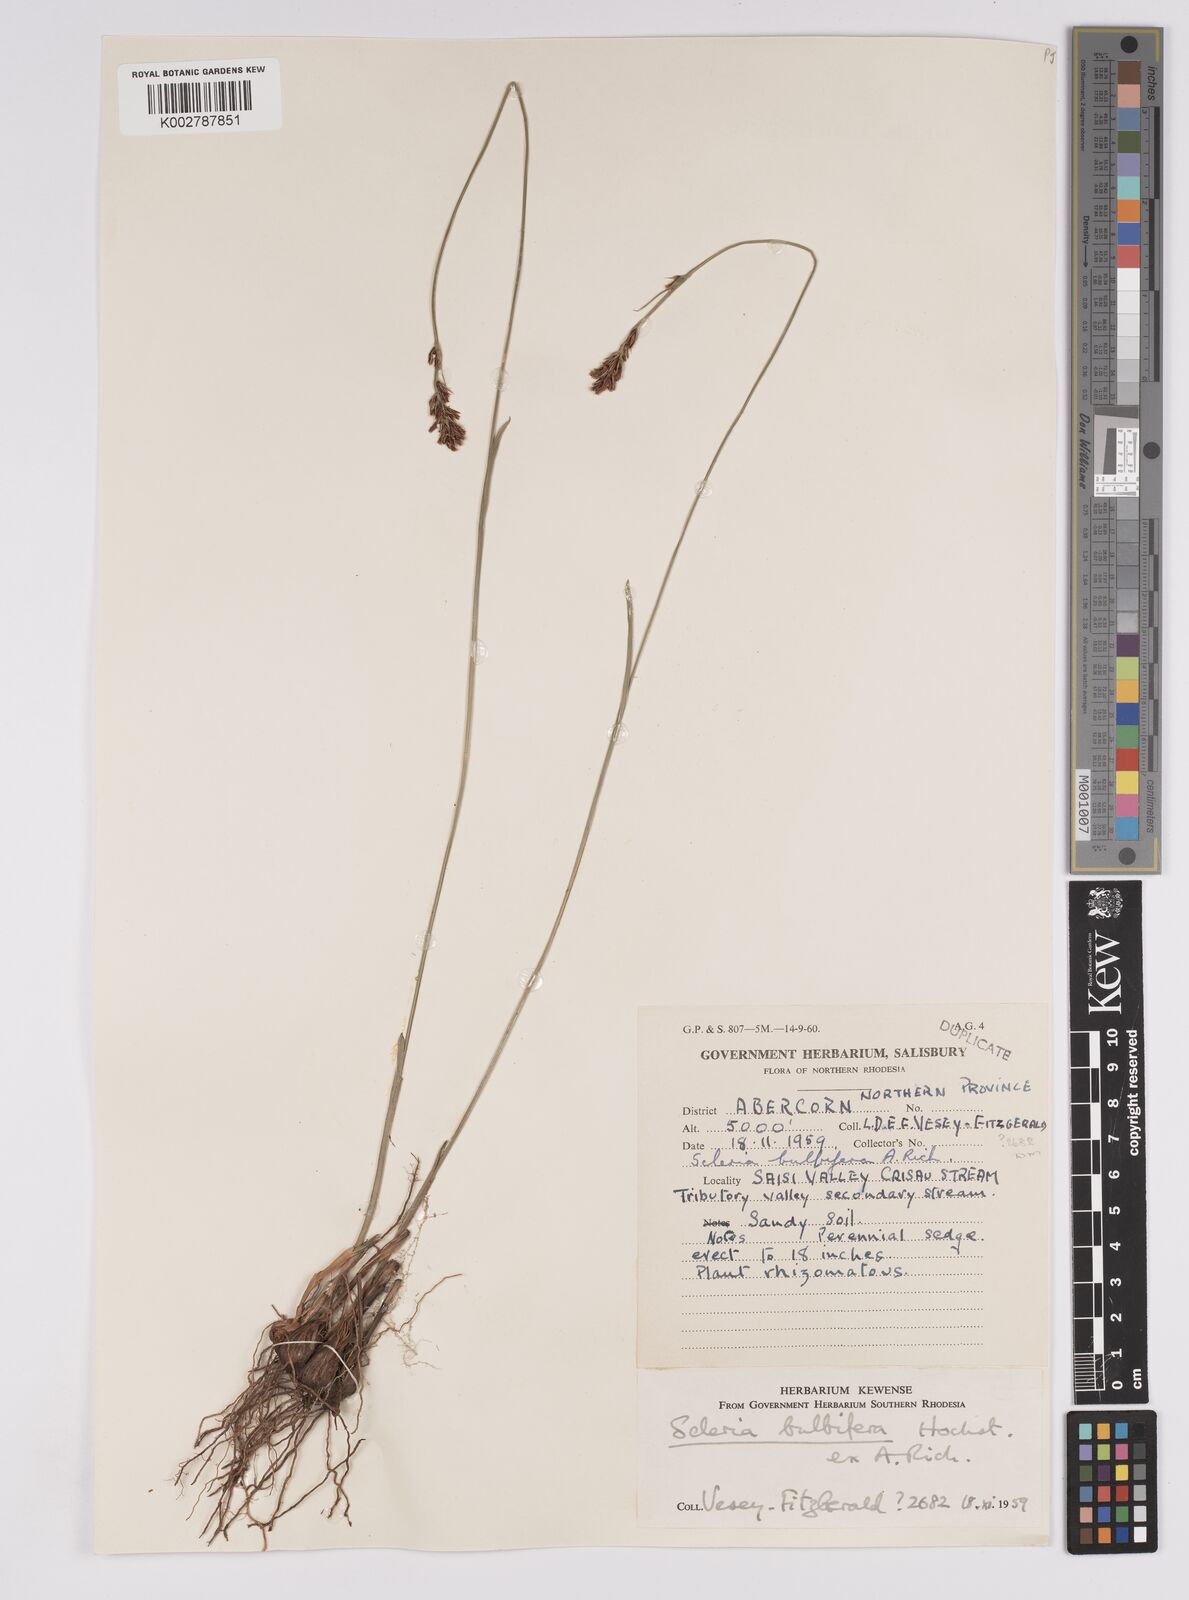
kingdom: Plantae
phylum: Tracheophyta
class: Liliopsida
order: Poales
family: Cyperaceae
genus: Scleria
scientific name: Scleria bulbifera
